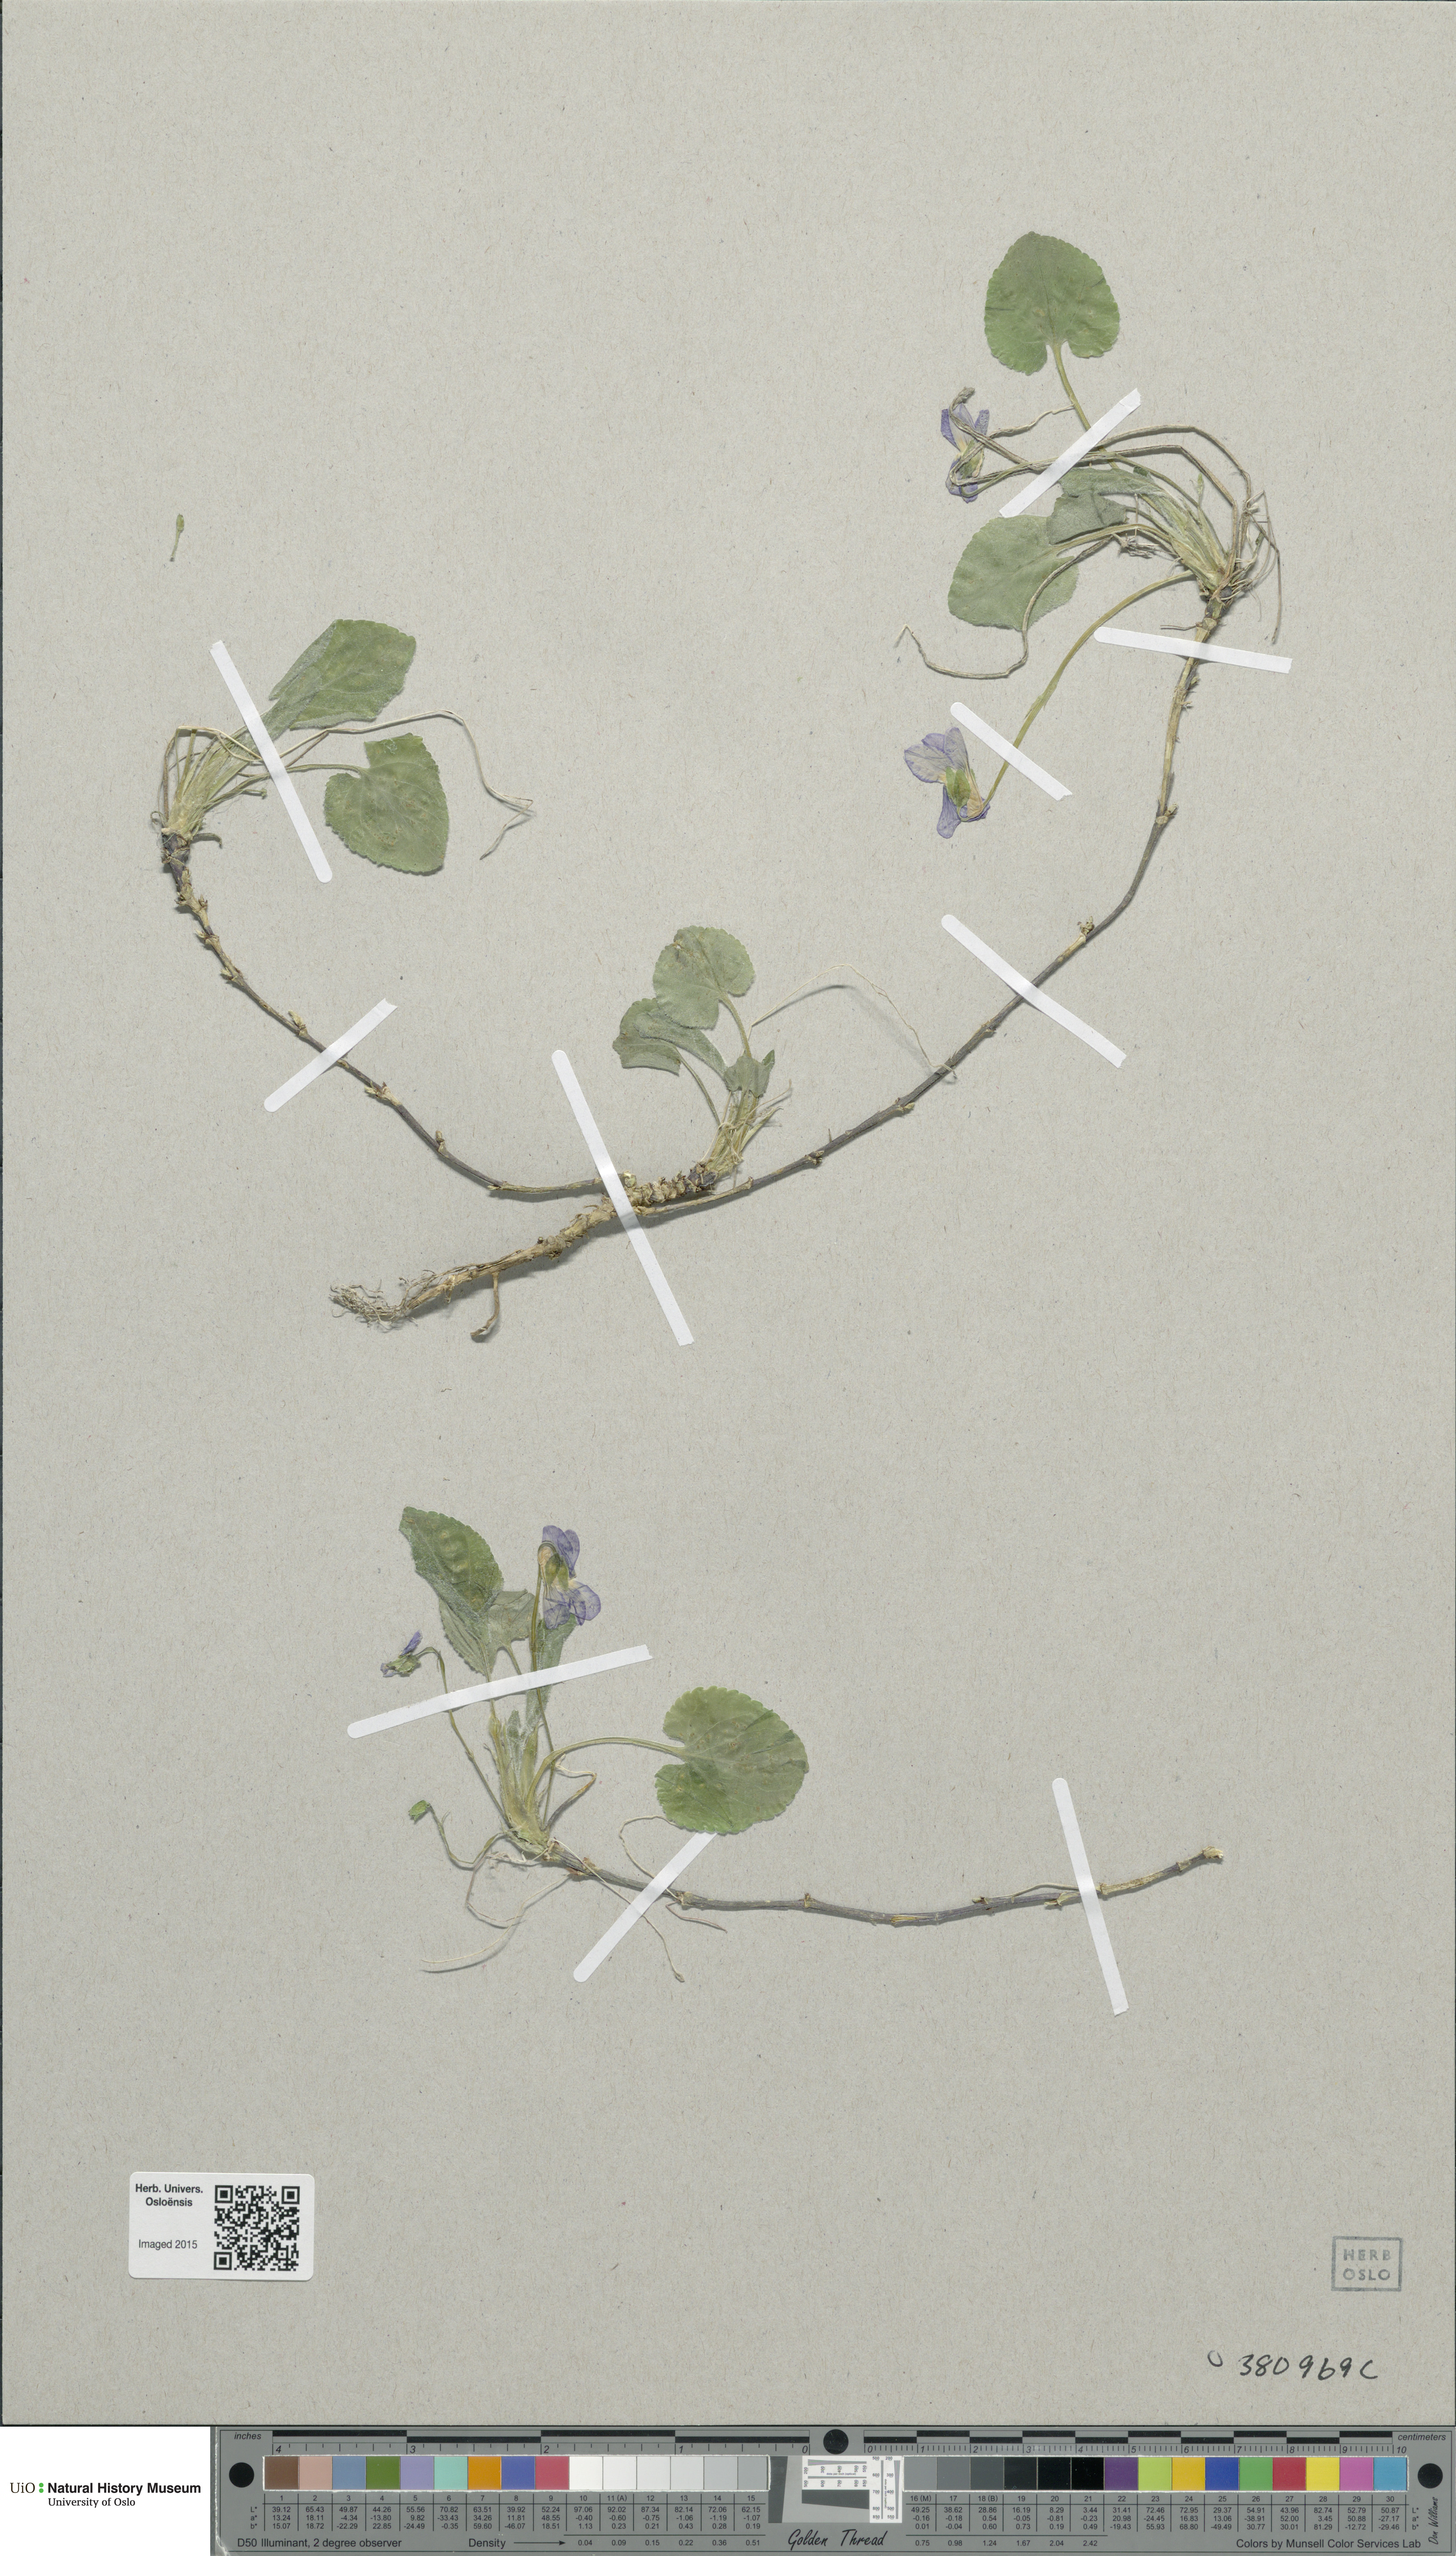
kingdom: Plantae
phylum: Tracheophyta
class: Magnoliopsida
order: Malpighiales
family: Violaceae
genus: Viola
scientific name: Viola
